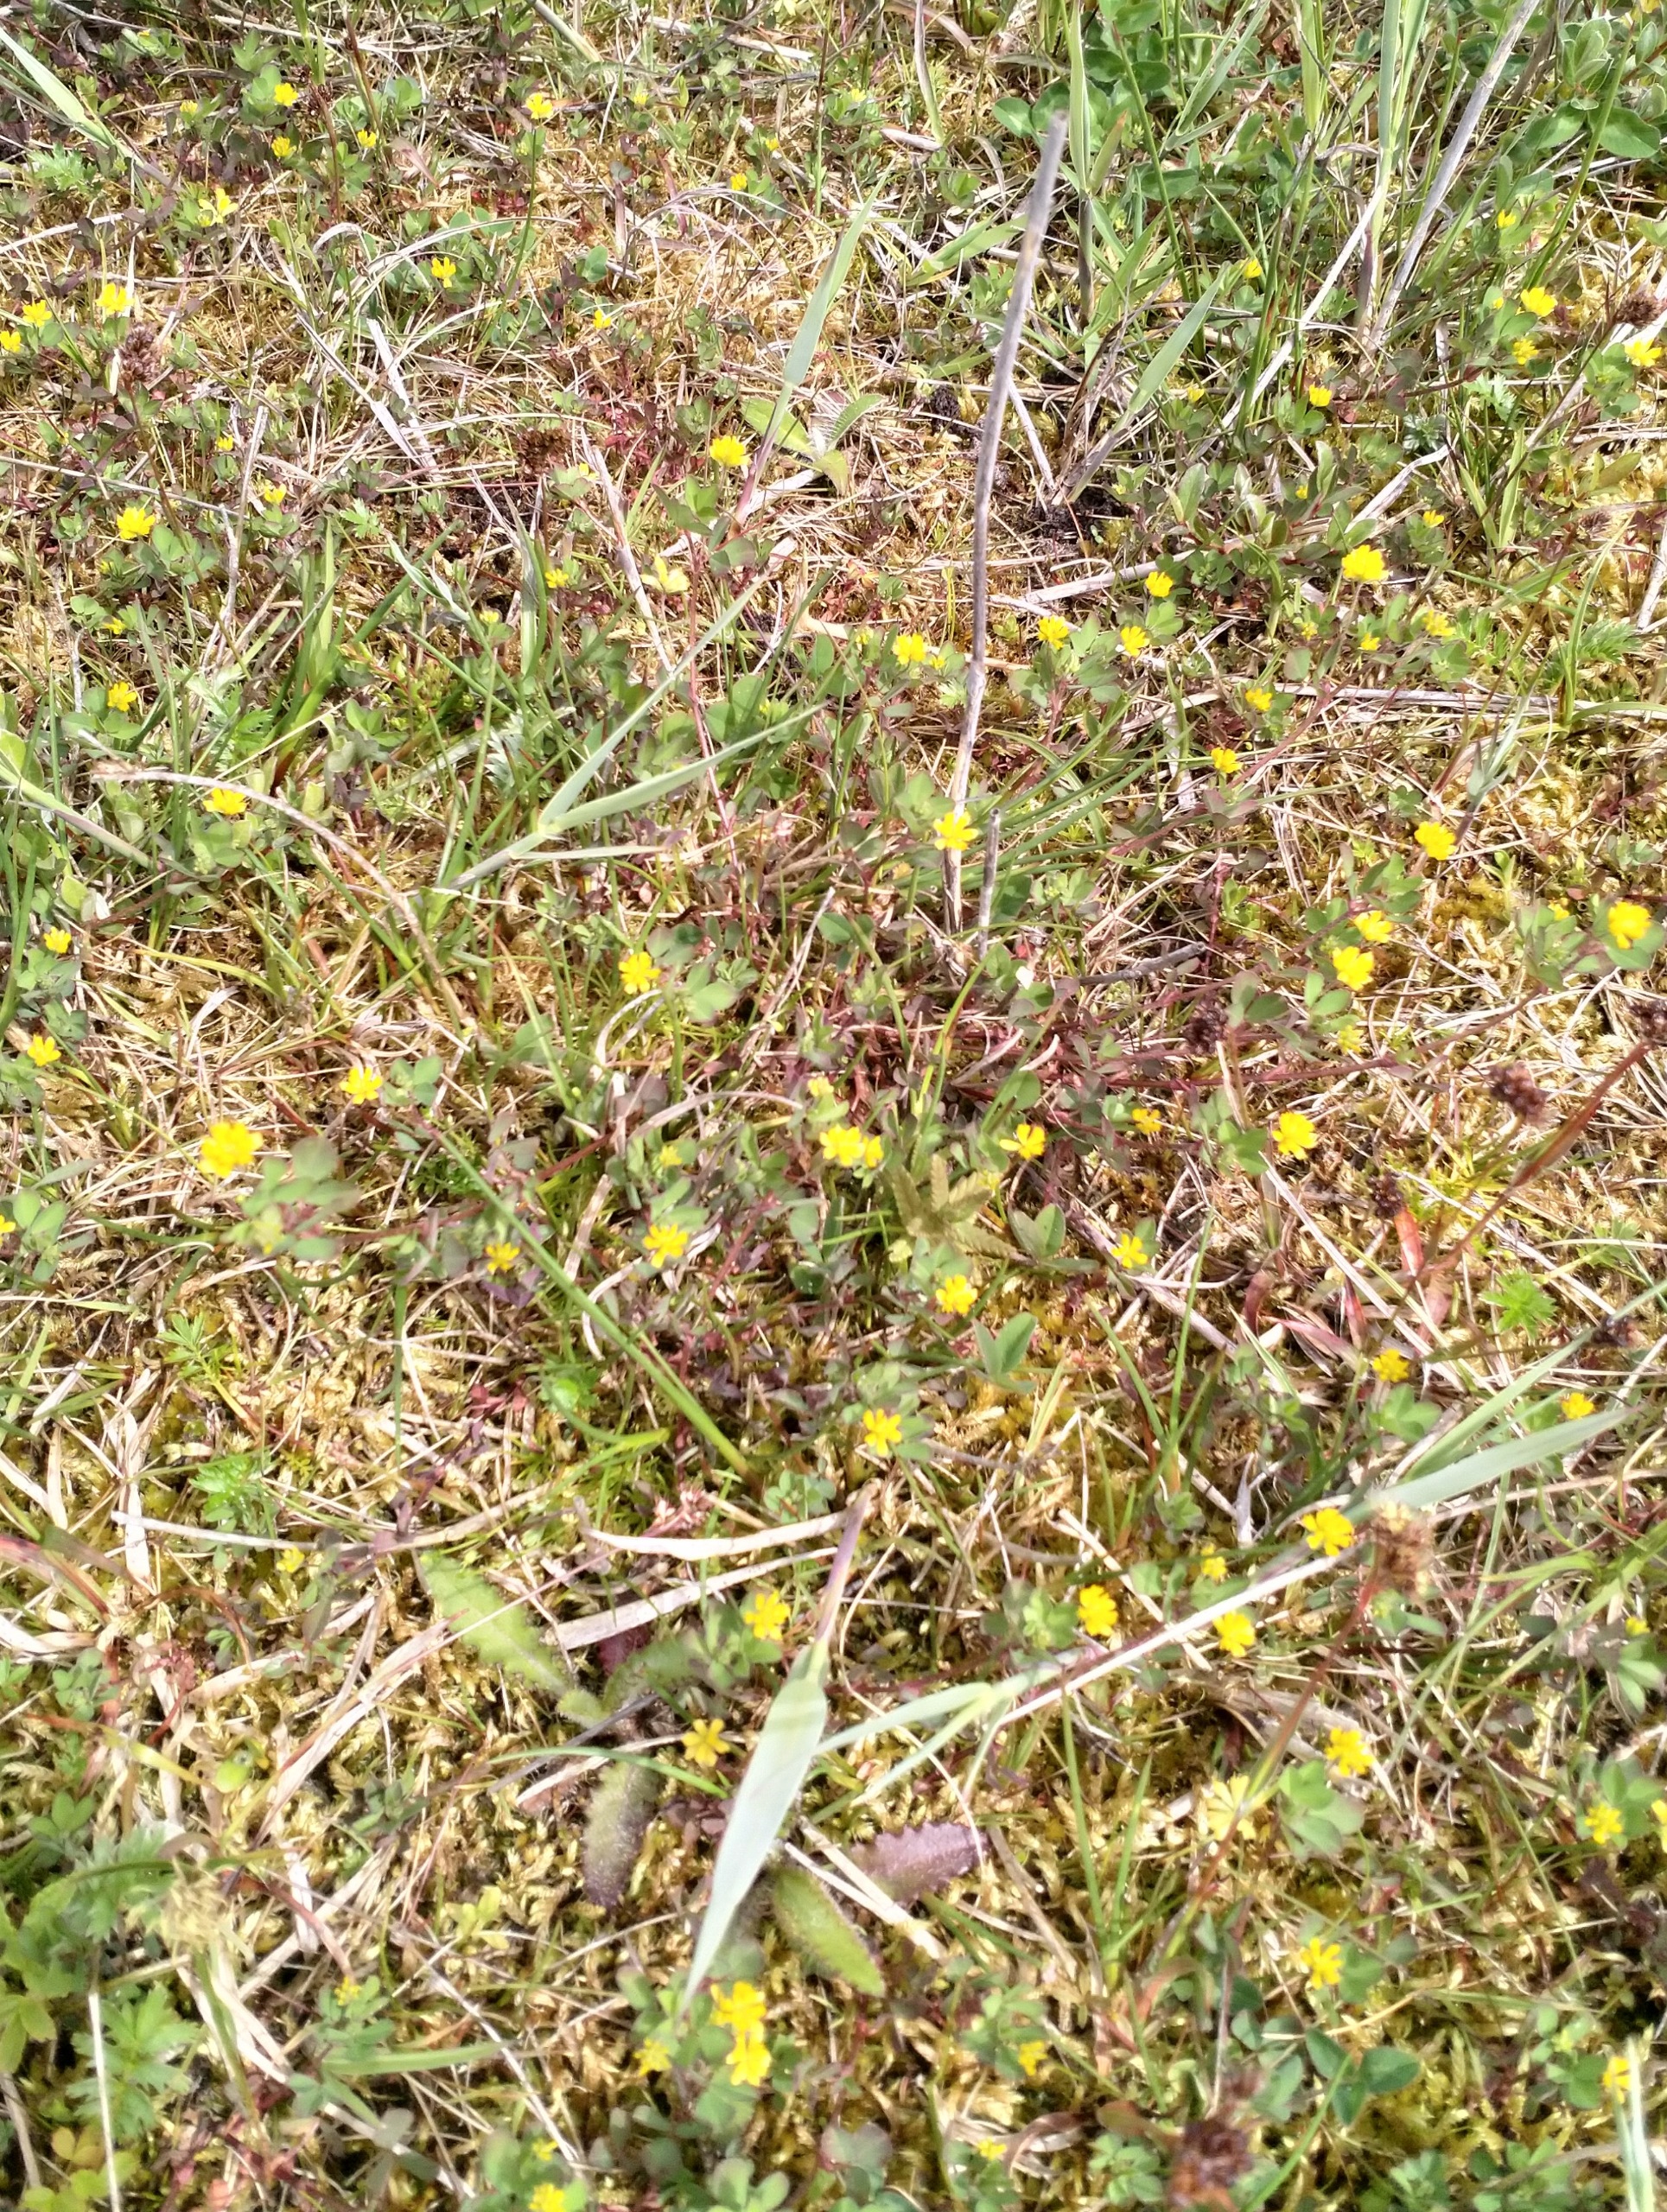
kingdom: Plantae
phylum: Tracheophyta
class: Magnoliopsida
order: Fabales
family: Fabaceae
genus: Trifolium
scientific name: Trifolium dubium
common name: Fin kløver
